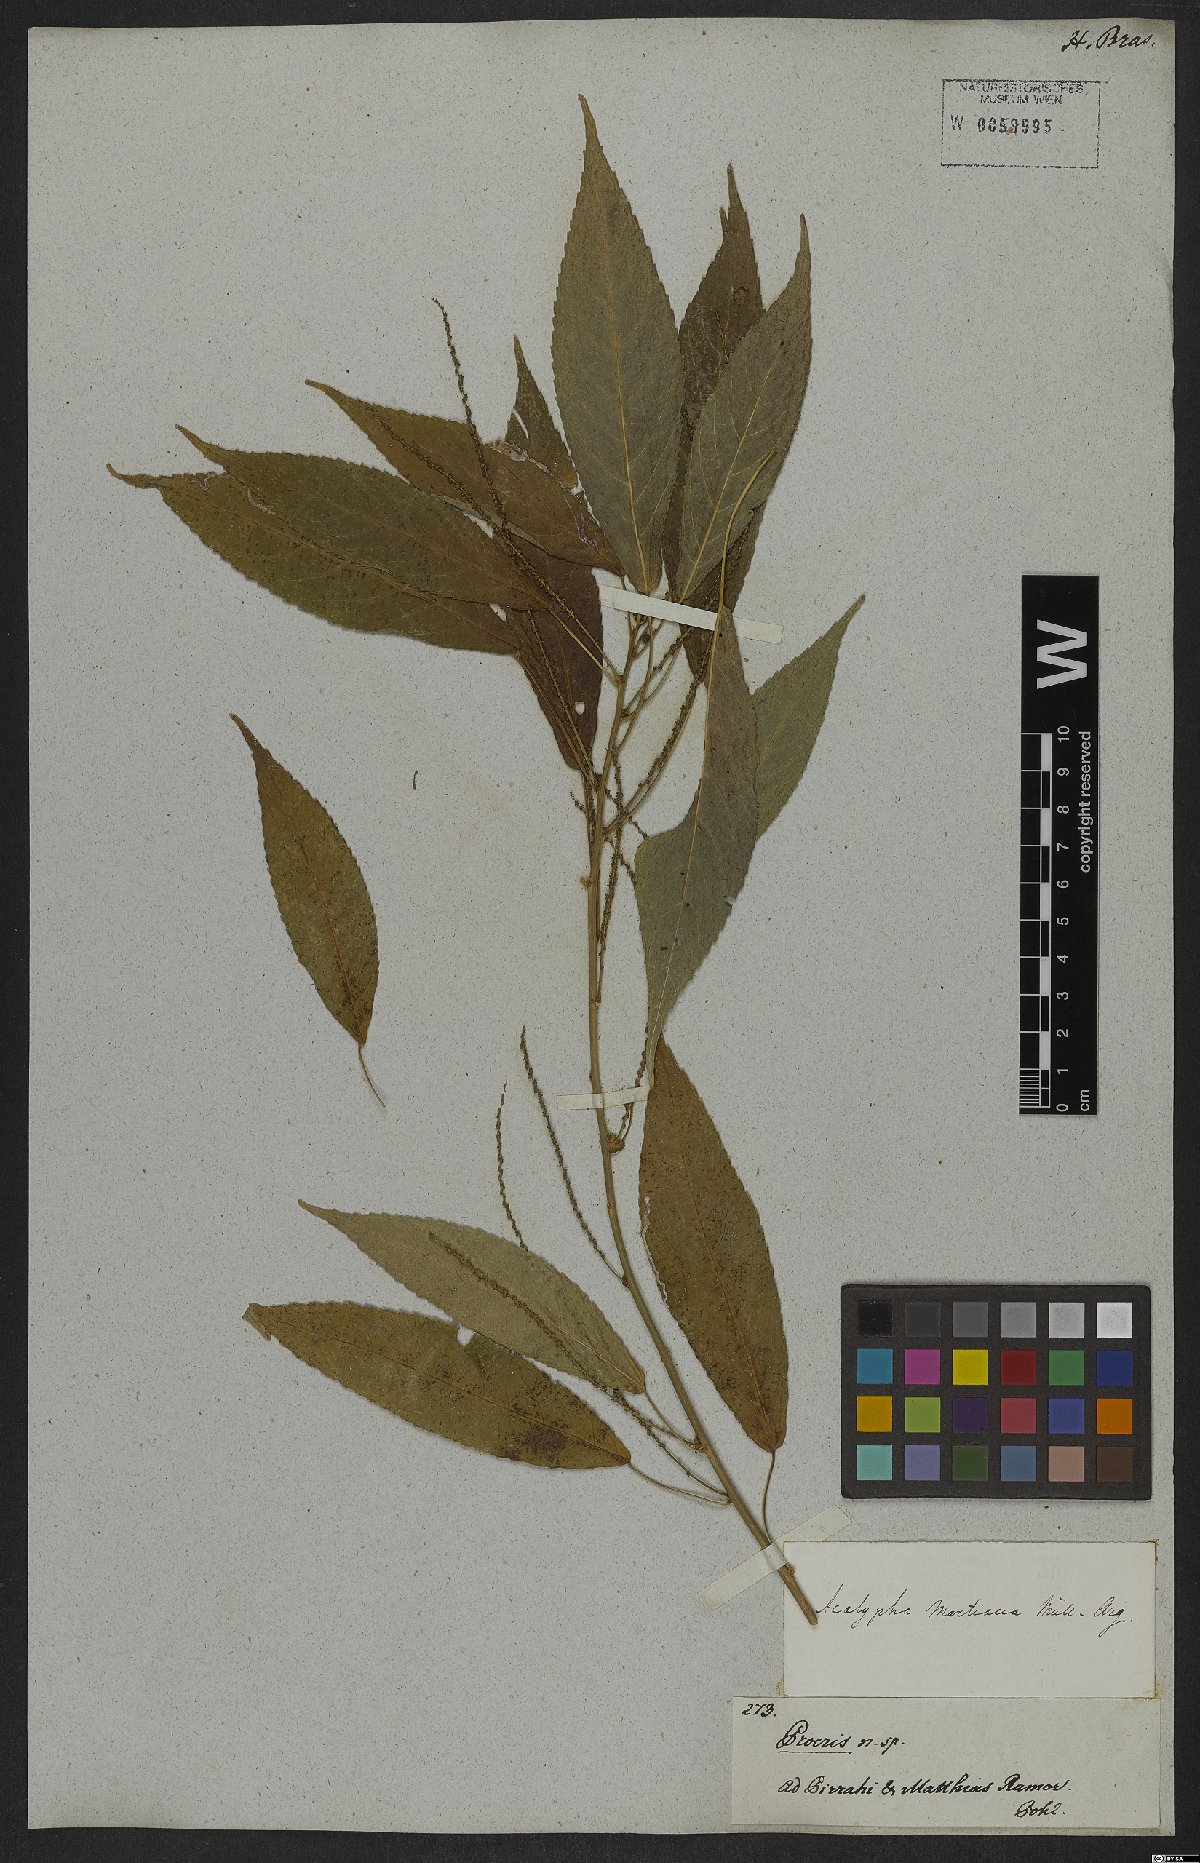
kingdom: Plantae
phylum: Tracheophyta
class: Magnoliopsida
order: Malpighiales
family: Euphorbiaceae
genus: Acalypha
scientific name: Acalypha martiana
